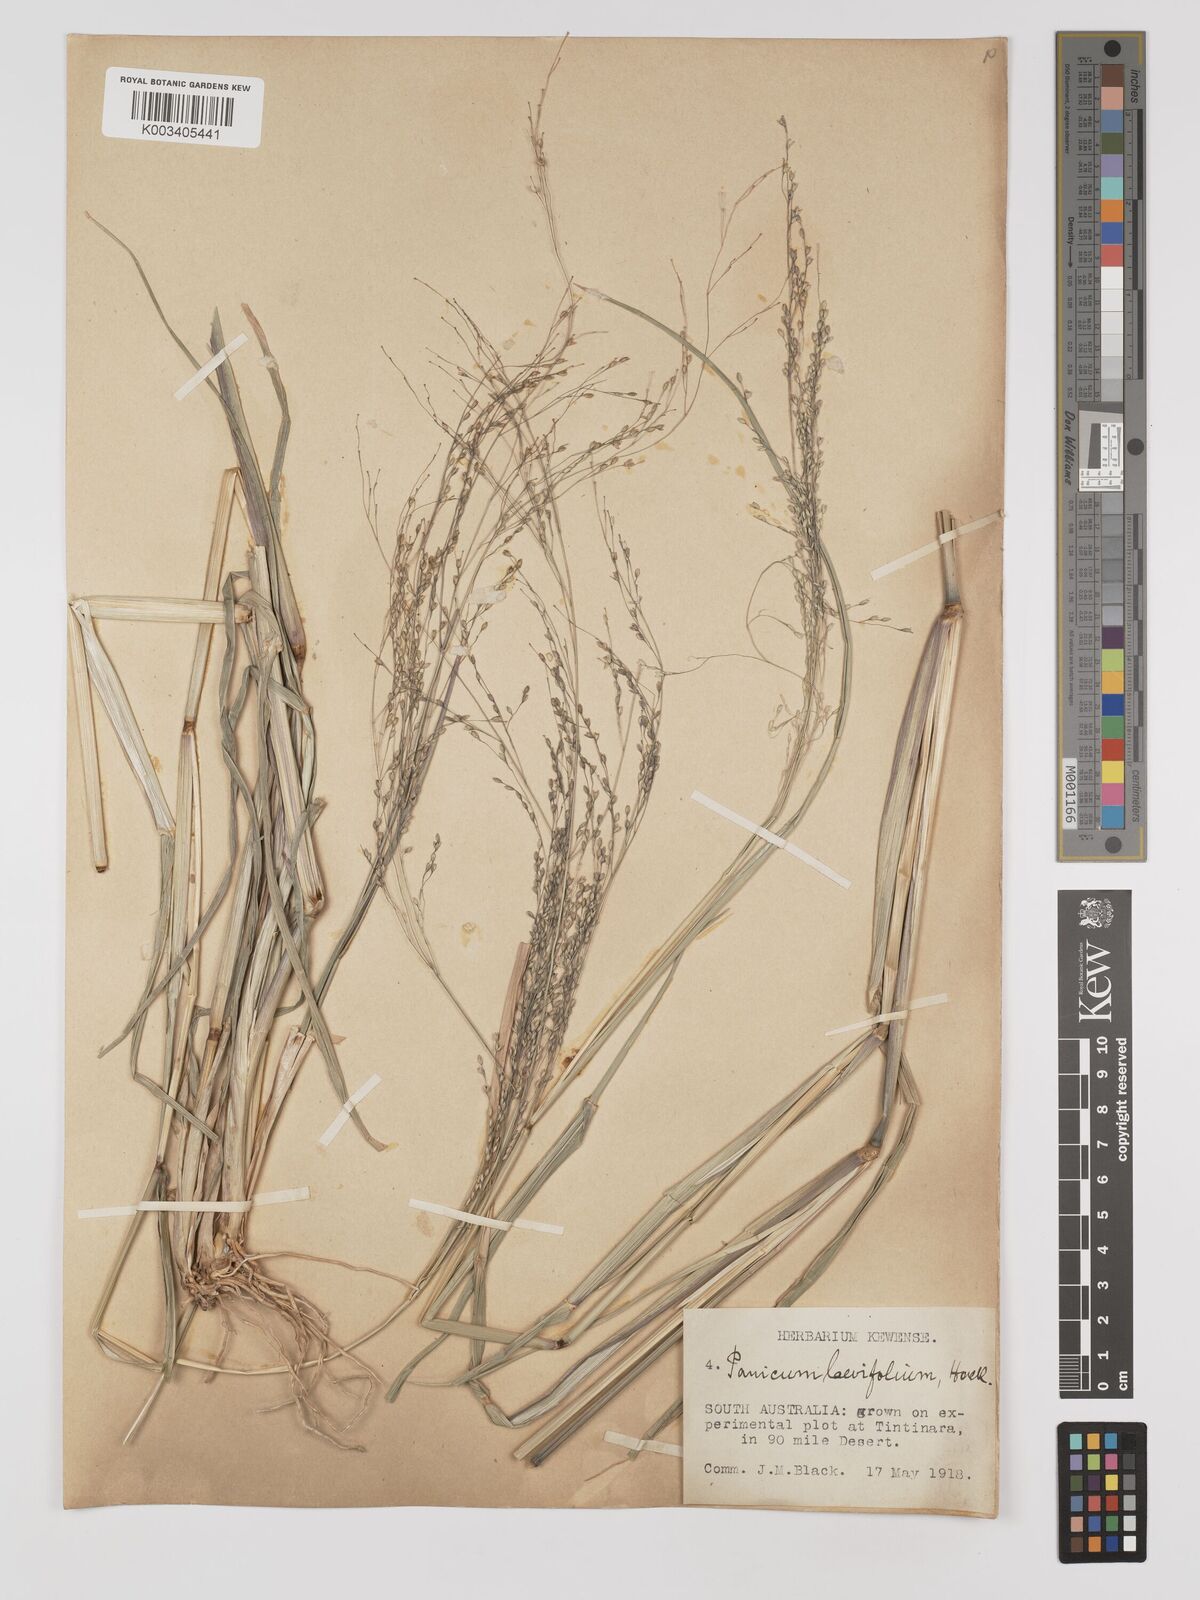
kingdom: Plantae
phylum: Tracheophyta
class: Liliopsida
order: Poales
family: Poaceae
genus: Panicum
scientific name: Panicum schinzii
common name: Sweet grass
